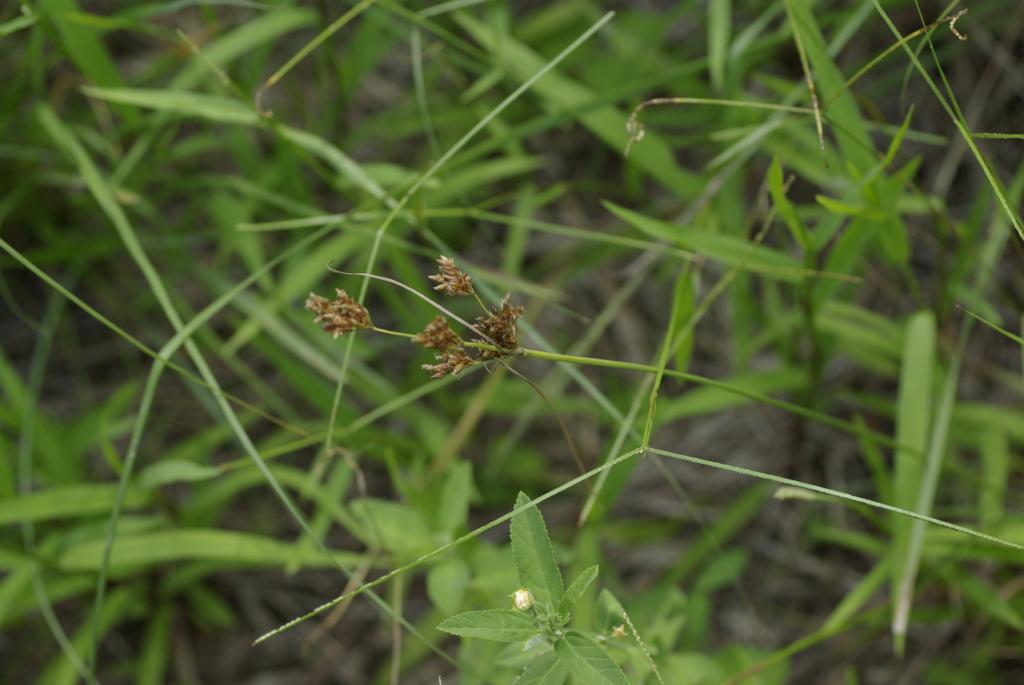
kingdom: Plantae
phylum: Tracheophyta
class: Liliopsida
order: Poales
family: Cyperaceae
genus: Fimbristylis
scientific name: Fimbristylis
